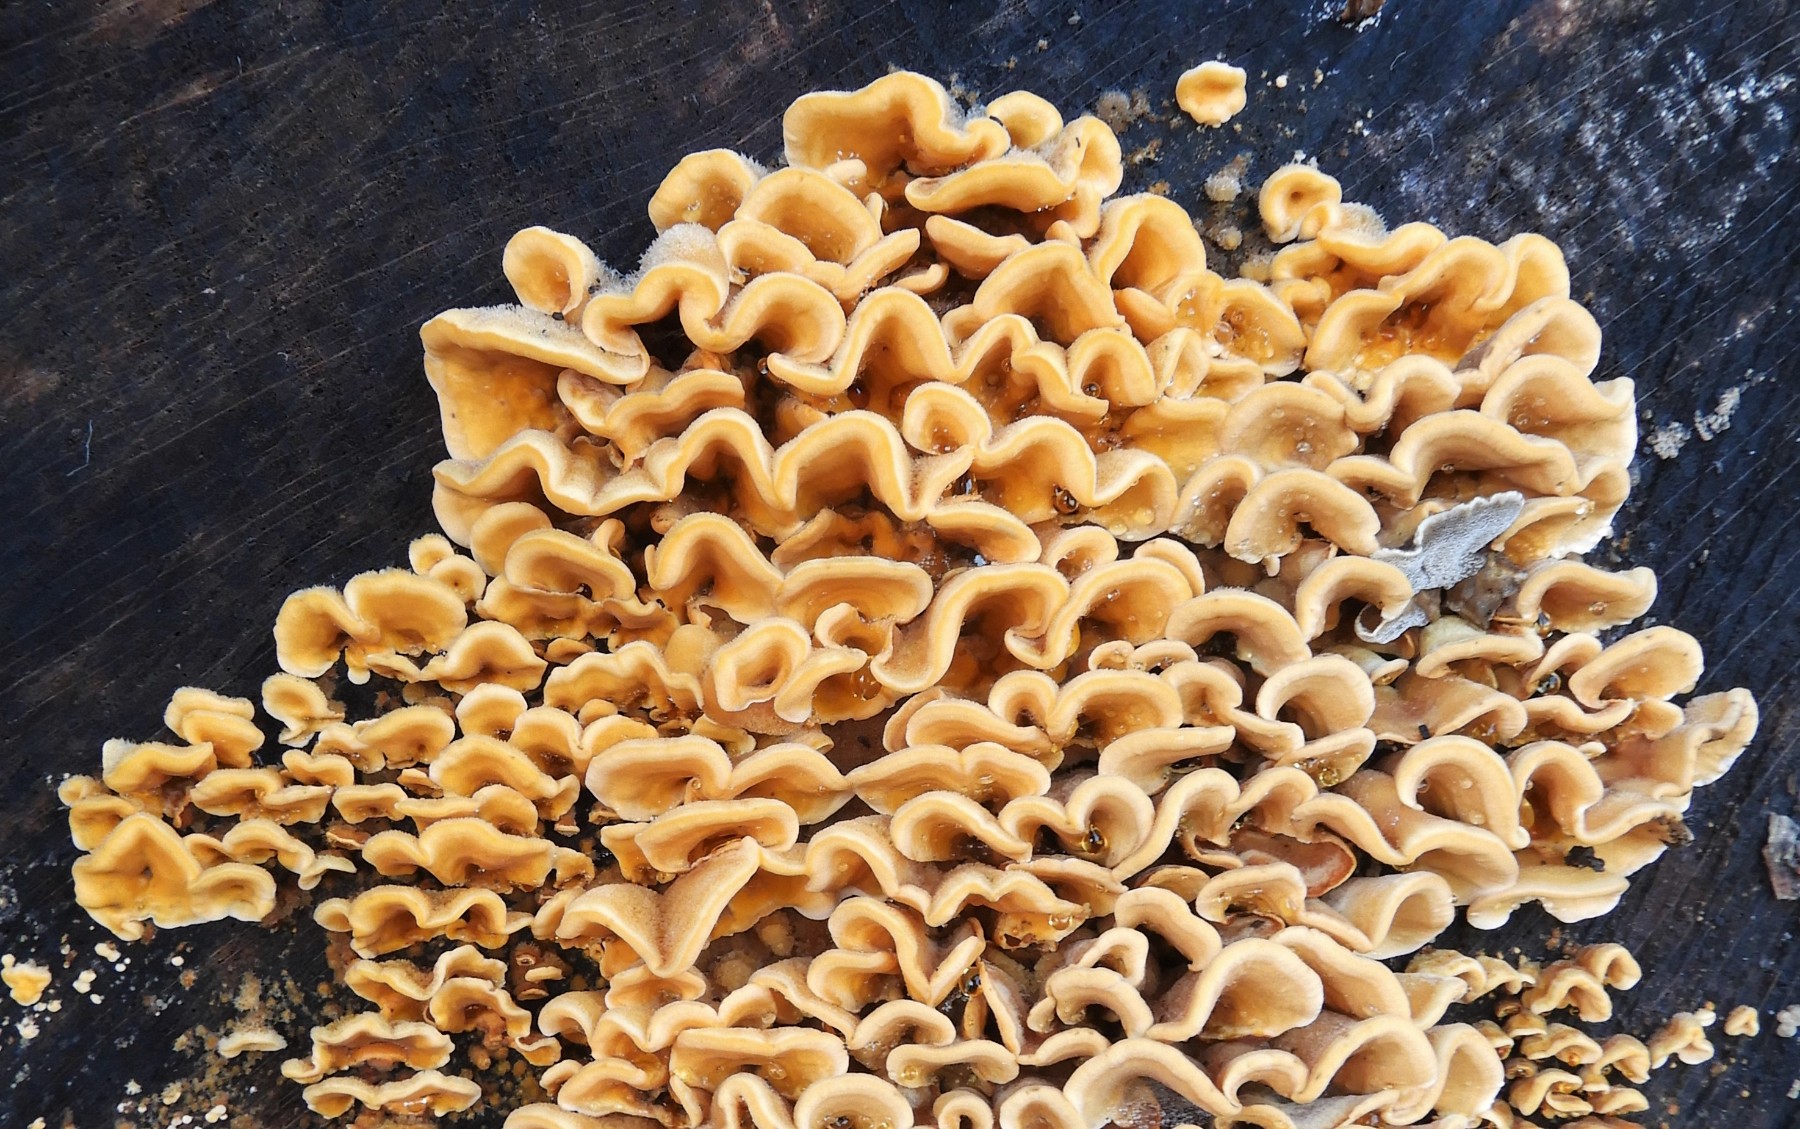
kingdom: Fungi
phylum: Basidiomycota
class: Agaricomycetes
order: Russulales
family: Stereaceae
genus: Stereum
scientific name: Stereum hirsutum
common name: håret lædersvamp
